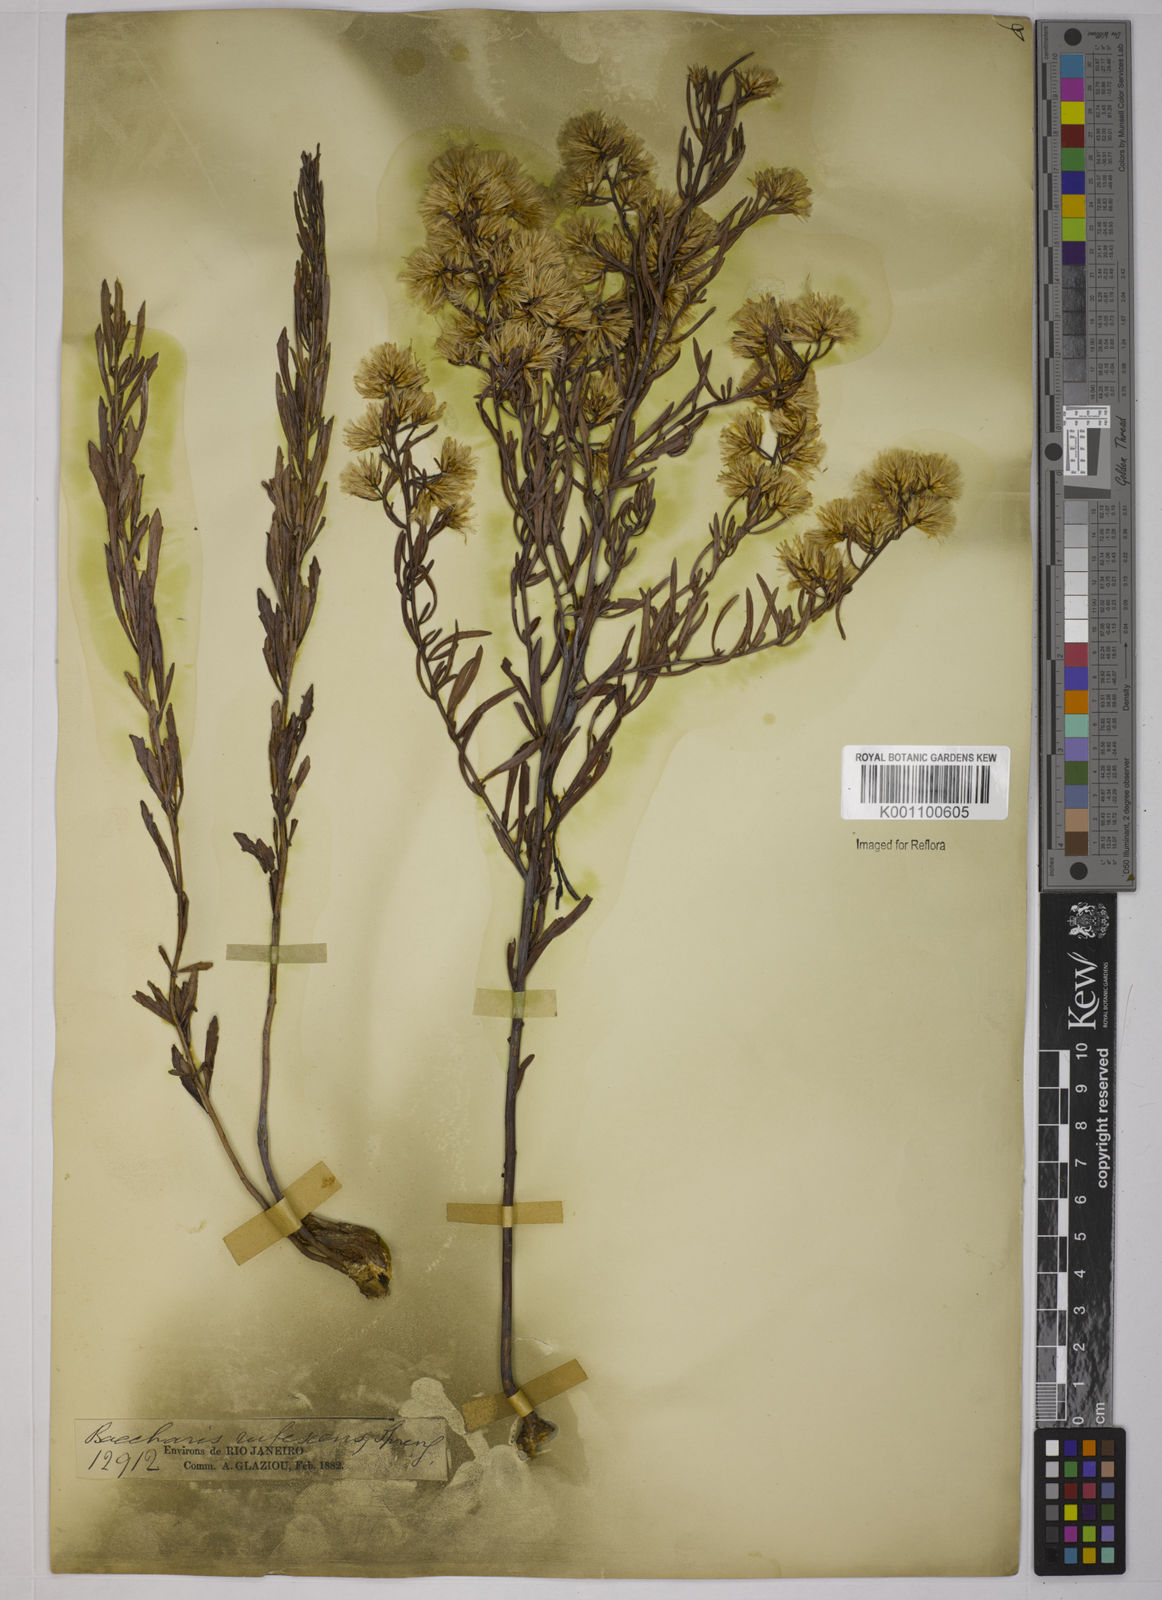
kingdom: Plantae
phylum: Tracheophyta
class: Magnoliopsida
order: Asterales
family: Asteraceae
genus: Baccharis
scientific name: Baccharis rufescens
